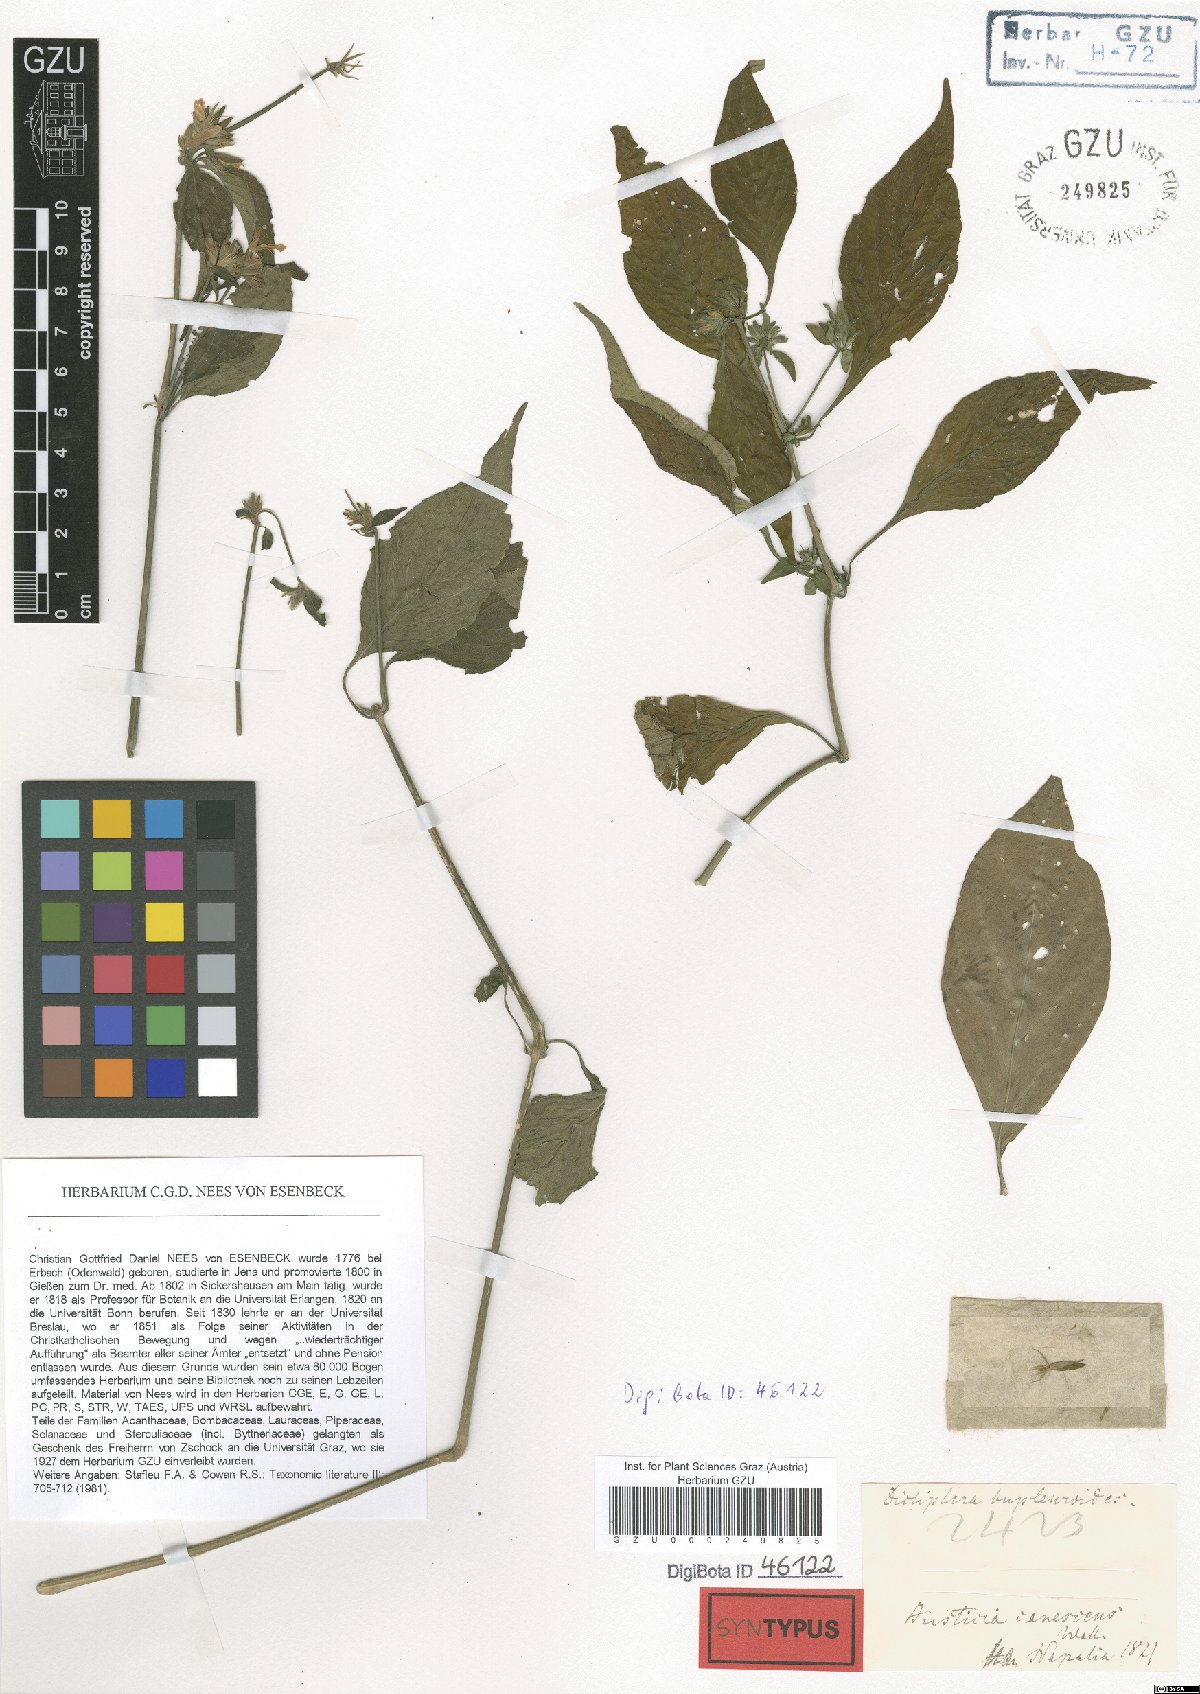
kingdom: Plantae
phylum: Tracheophyta
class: Magnoliopsida
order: Lamiales
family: Acanthaceae
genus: Dicliptera
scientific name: Dicliptera bupleuroides
